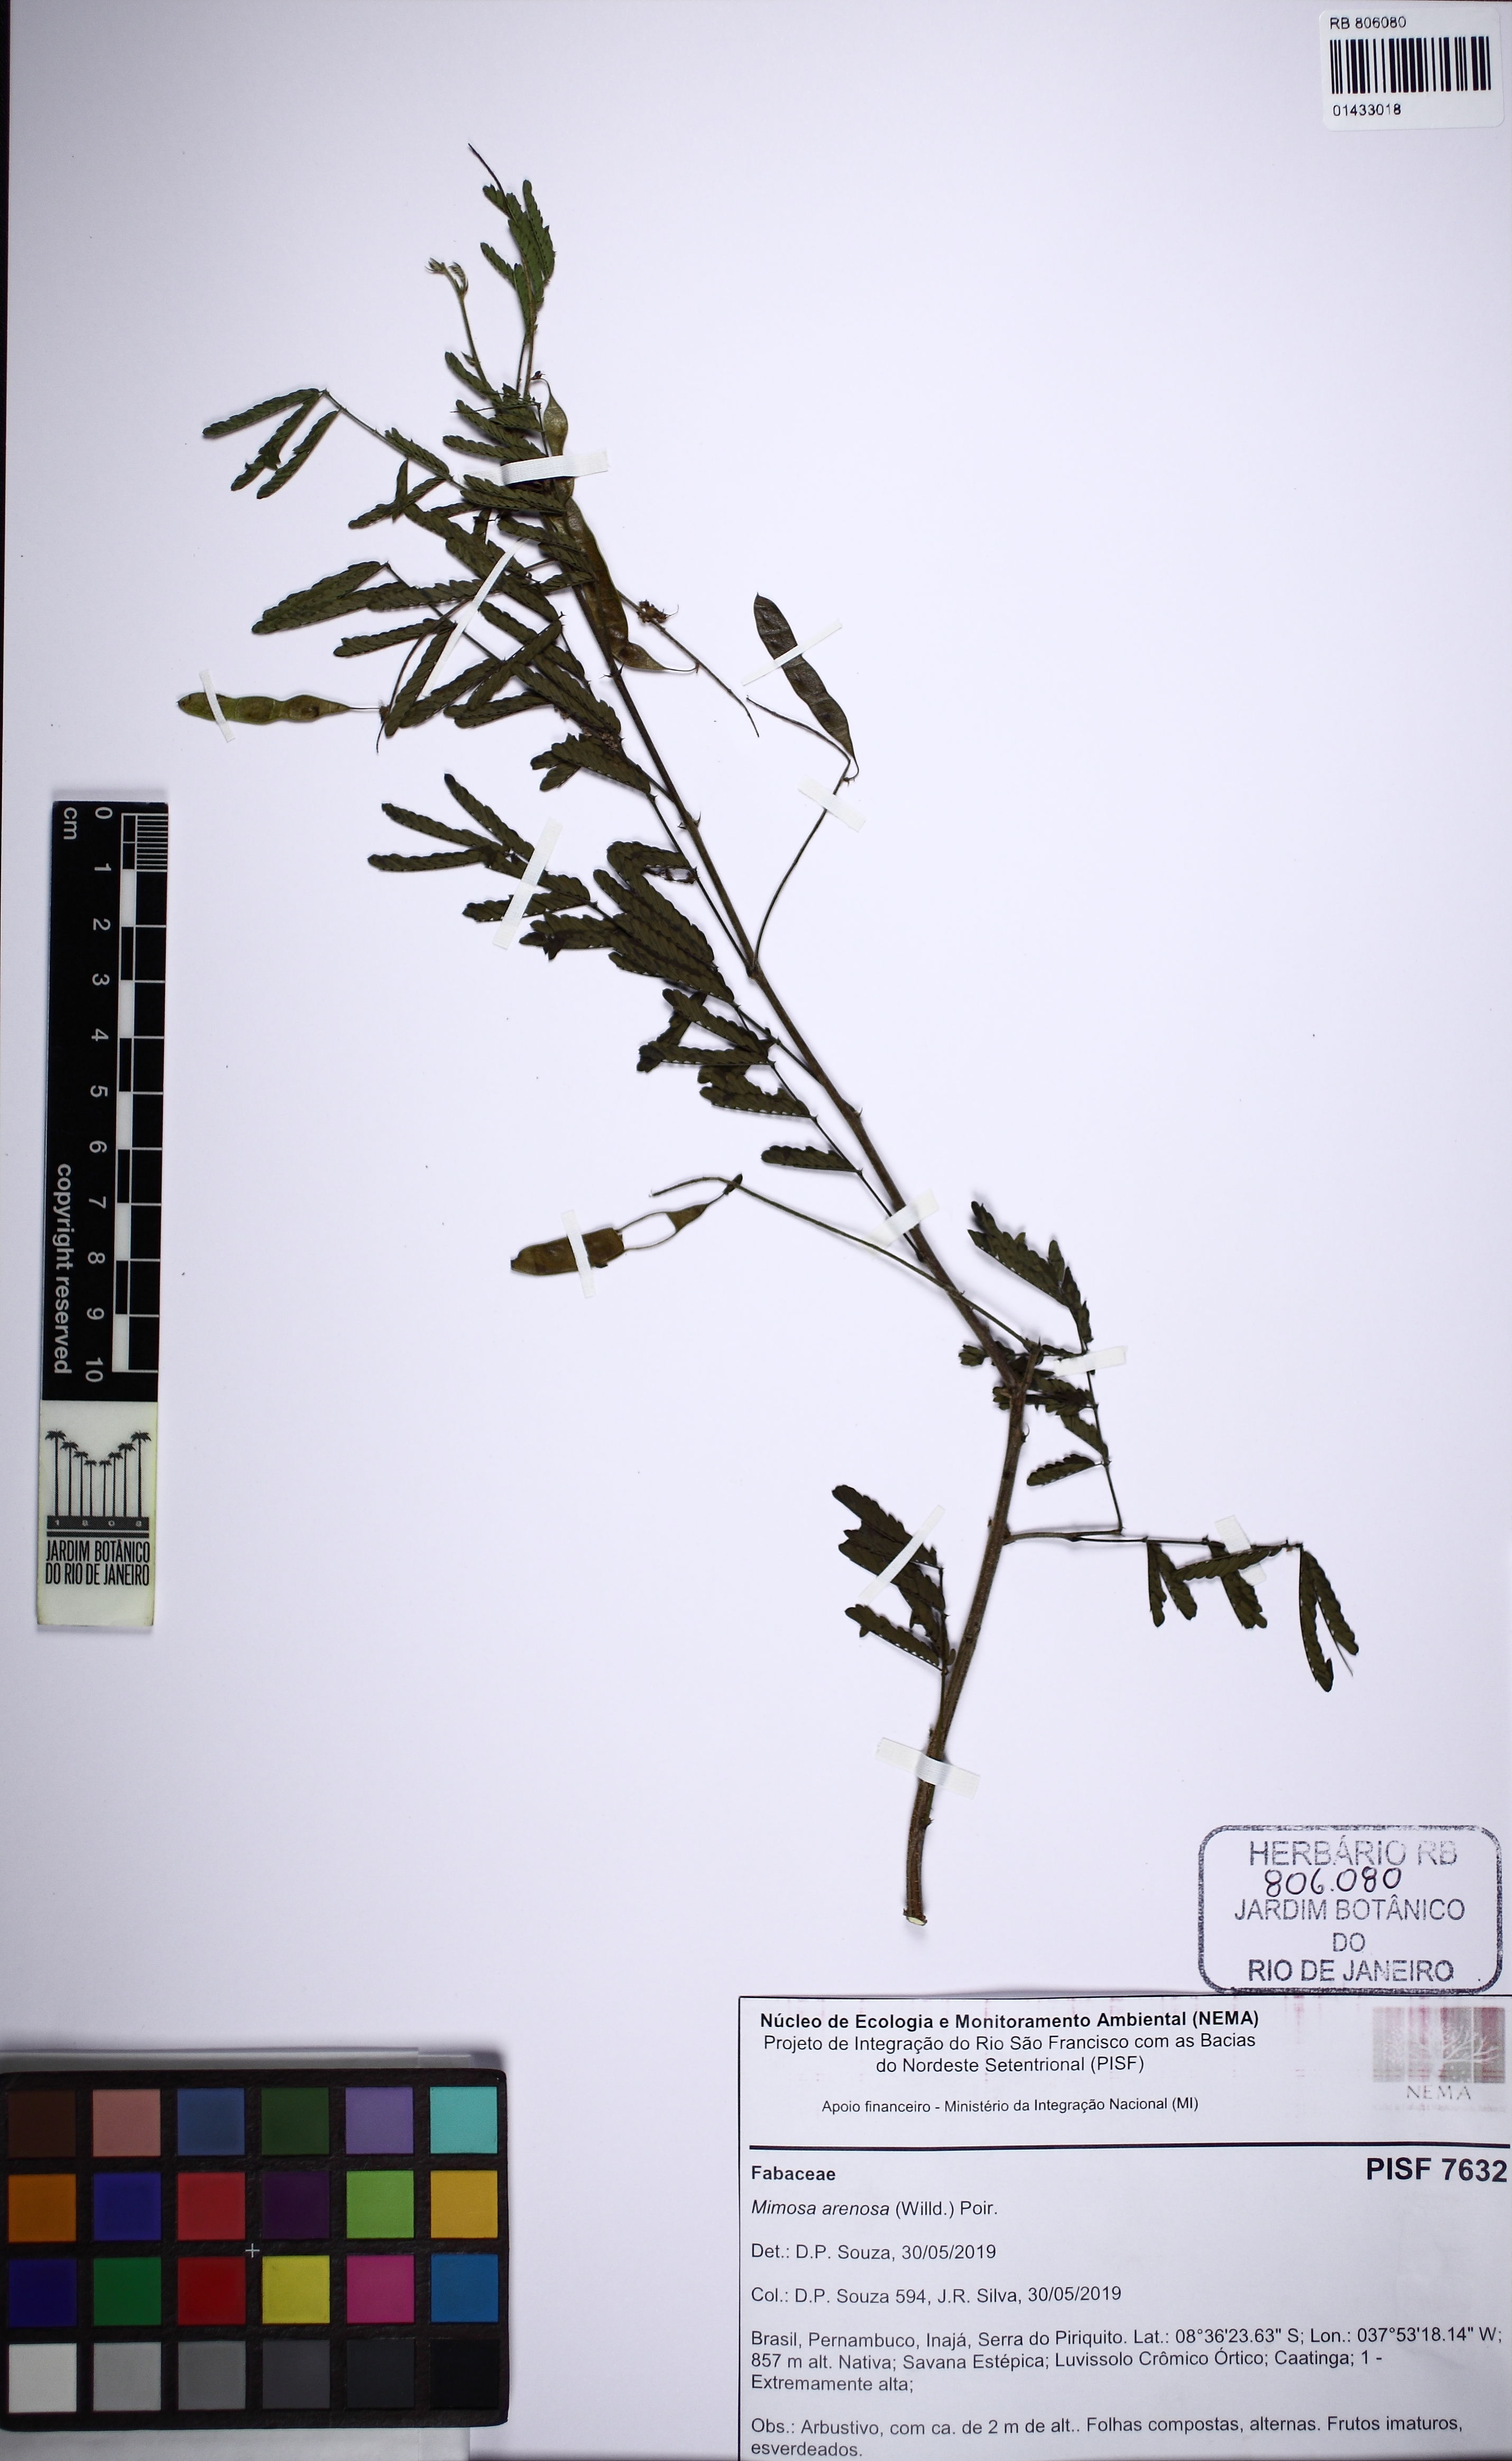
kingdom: Plantae
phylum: Tracheophyta
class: Magnoliopsida
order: Fabales
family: Fabaceae
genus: Mimosa
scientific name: Mimosa arenosa
